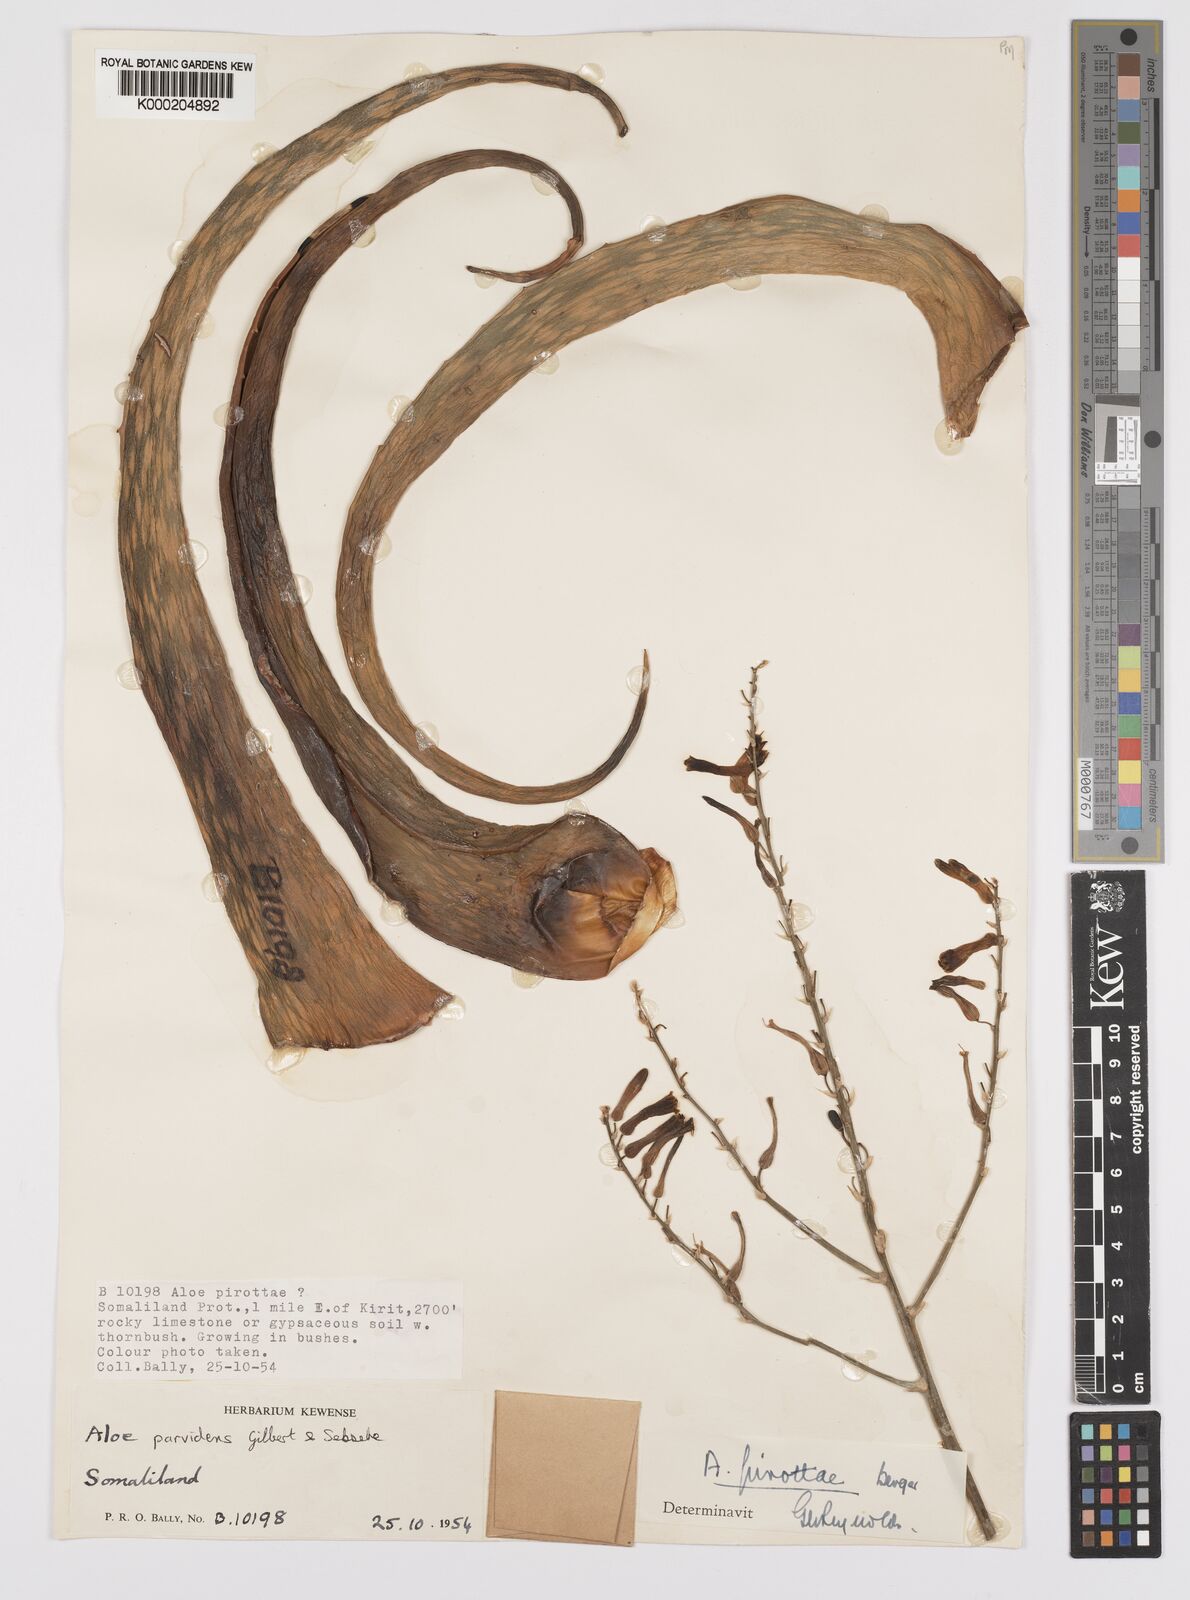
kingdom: Plantae
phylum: Tracheophyta
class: Liliopsida
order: Asparagales
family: Asphodelaceae
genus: Aloe
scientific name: Aloe parvidens
